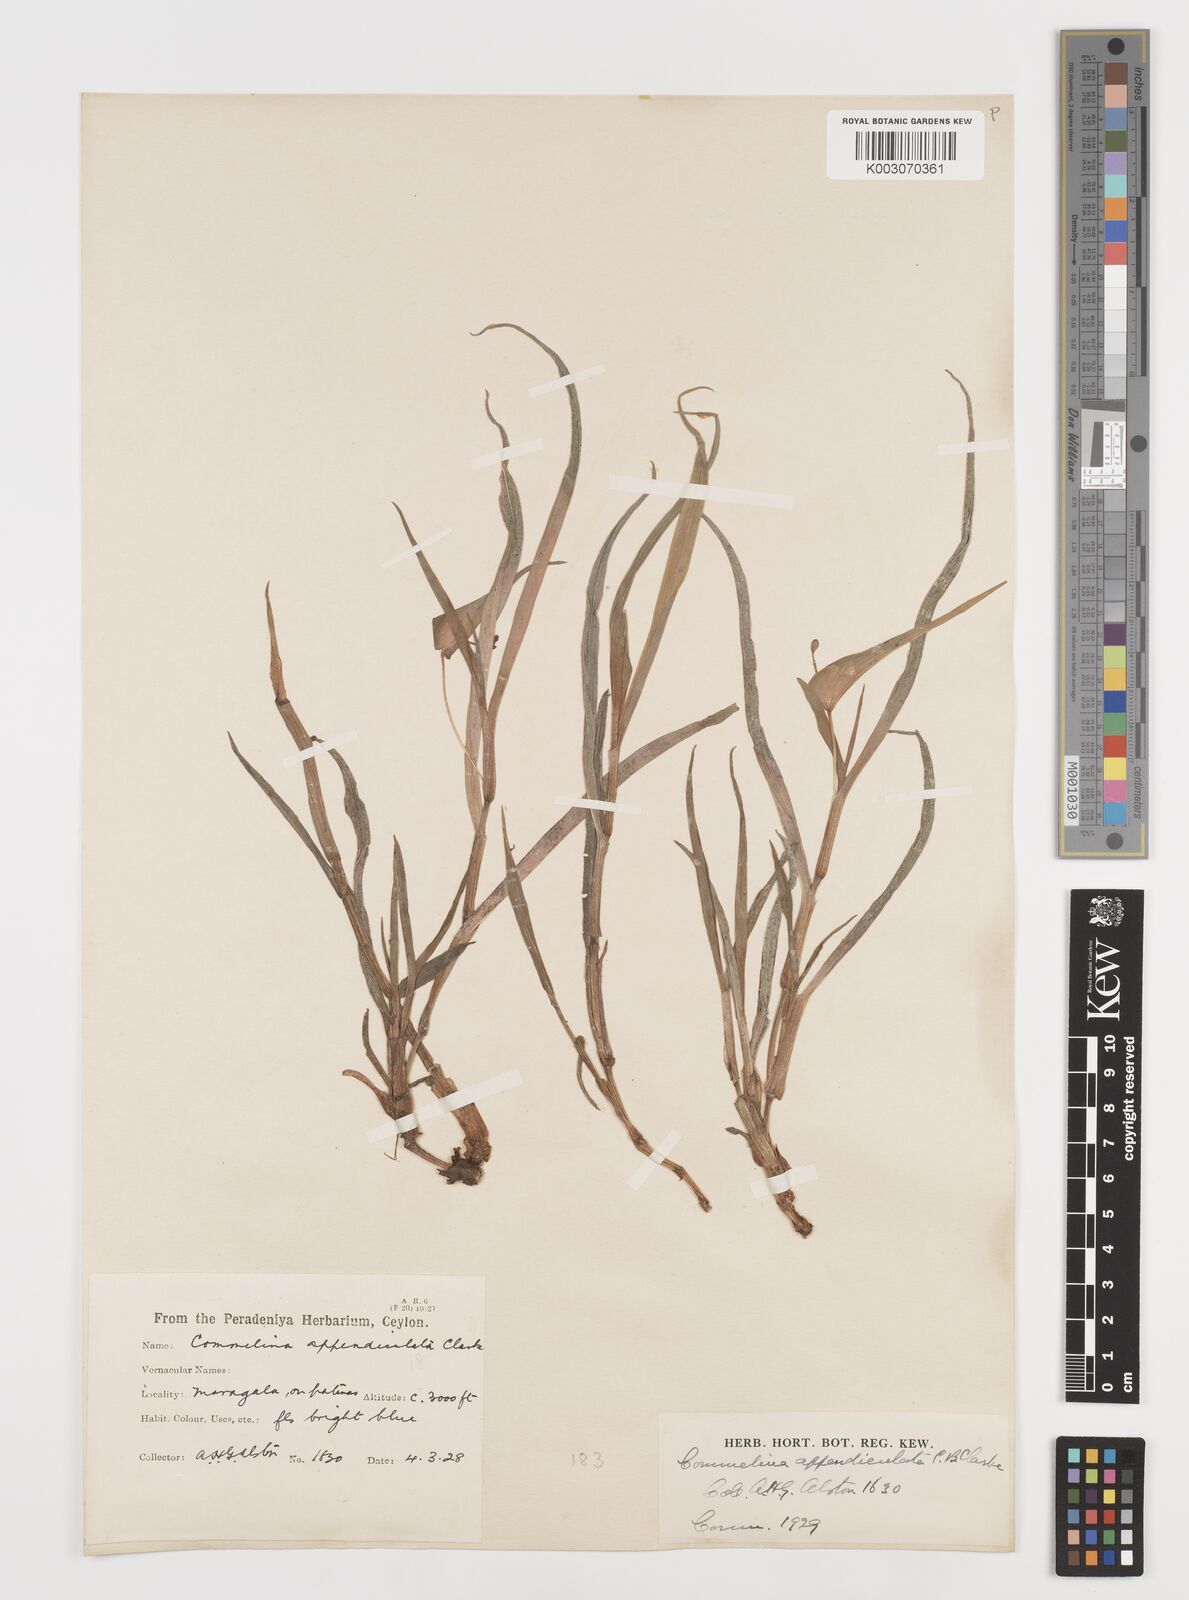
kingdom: Plantae
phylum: Tracheophyta
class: Liliopsida
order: Commelinales
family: Commelinaceae
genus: Commelina
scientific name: Commelina appendiculata
